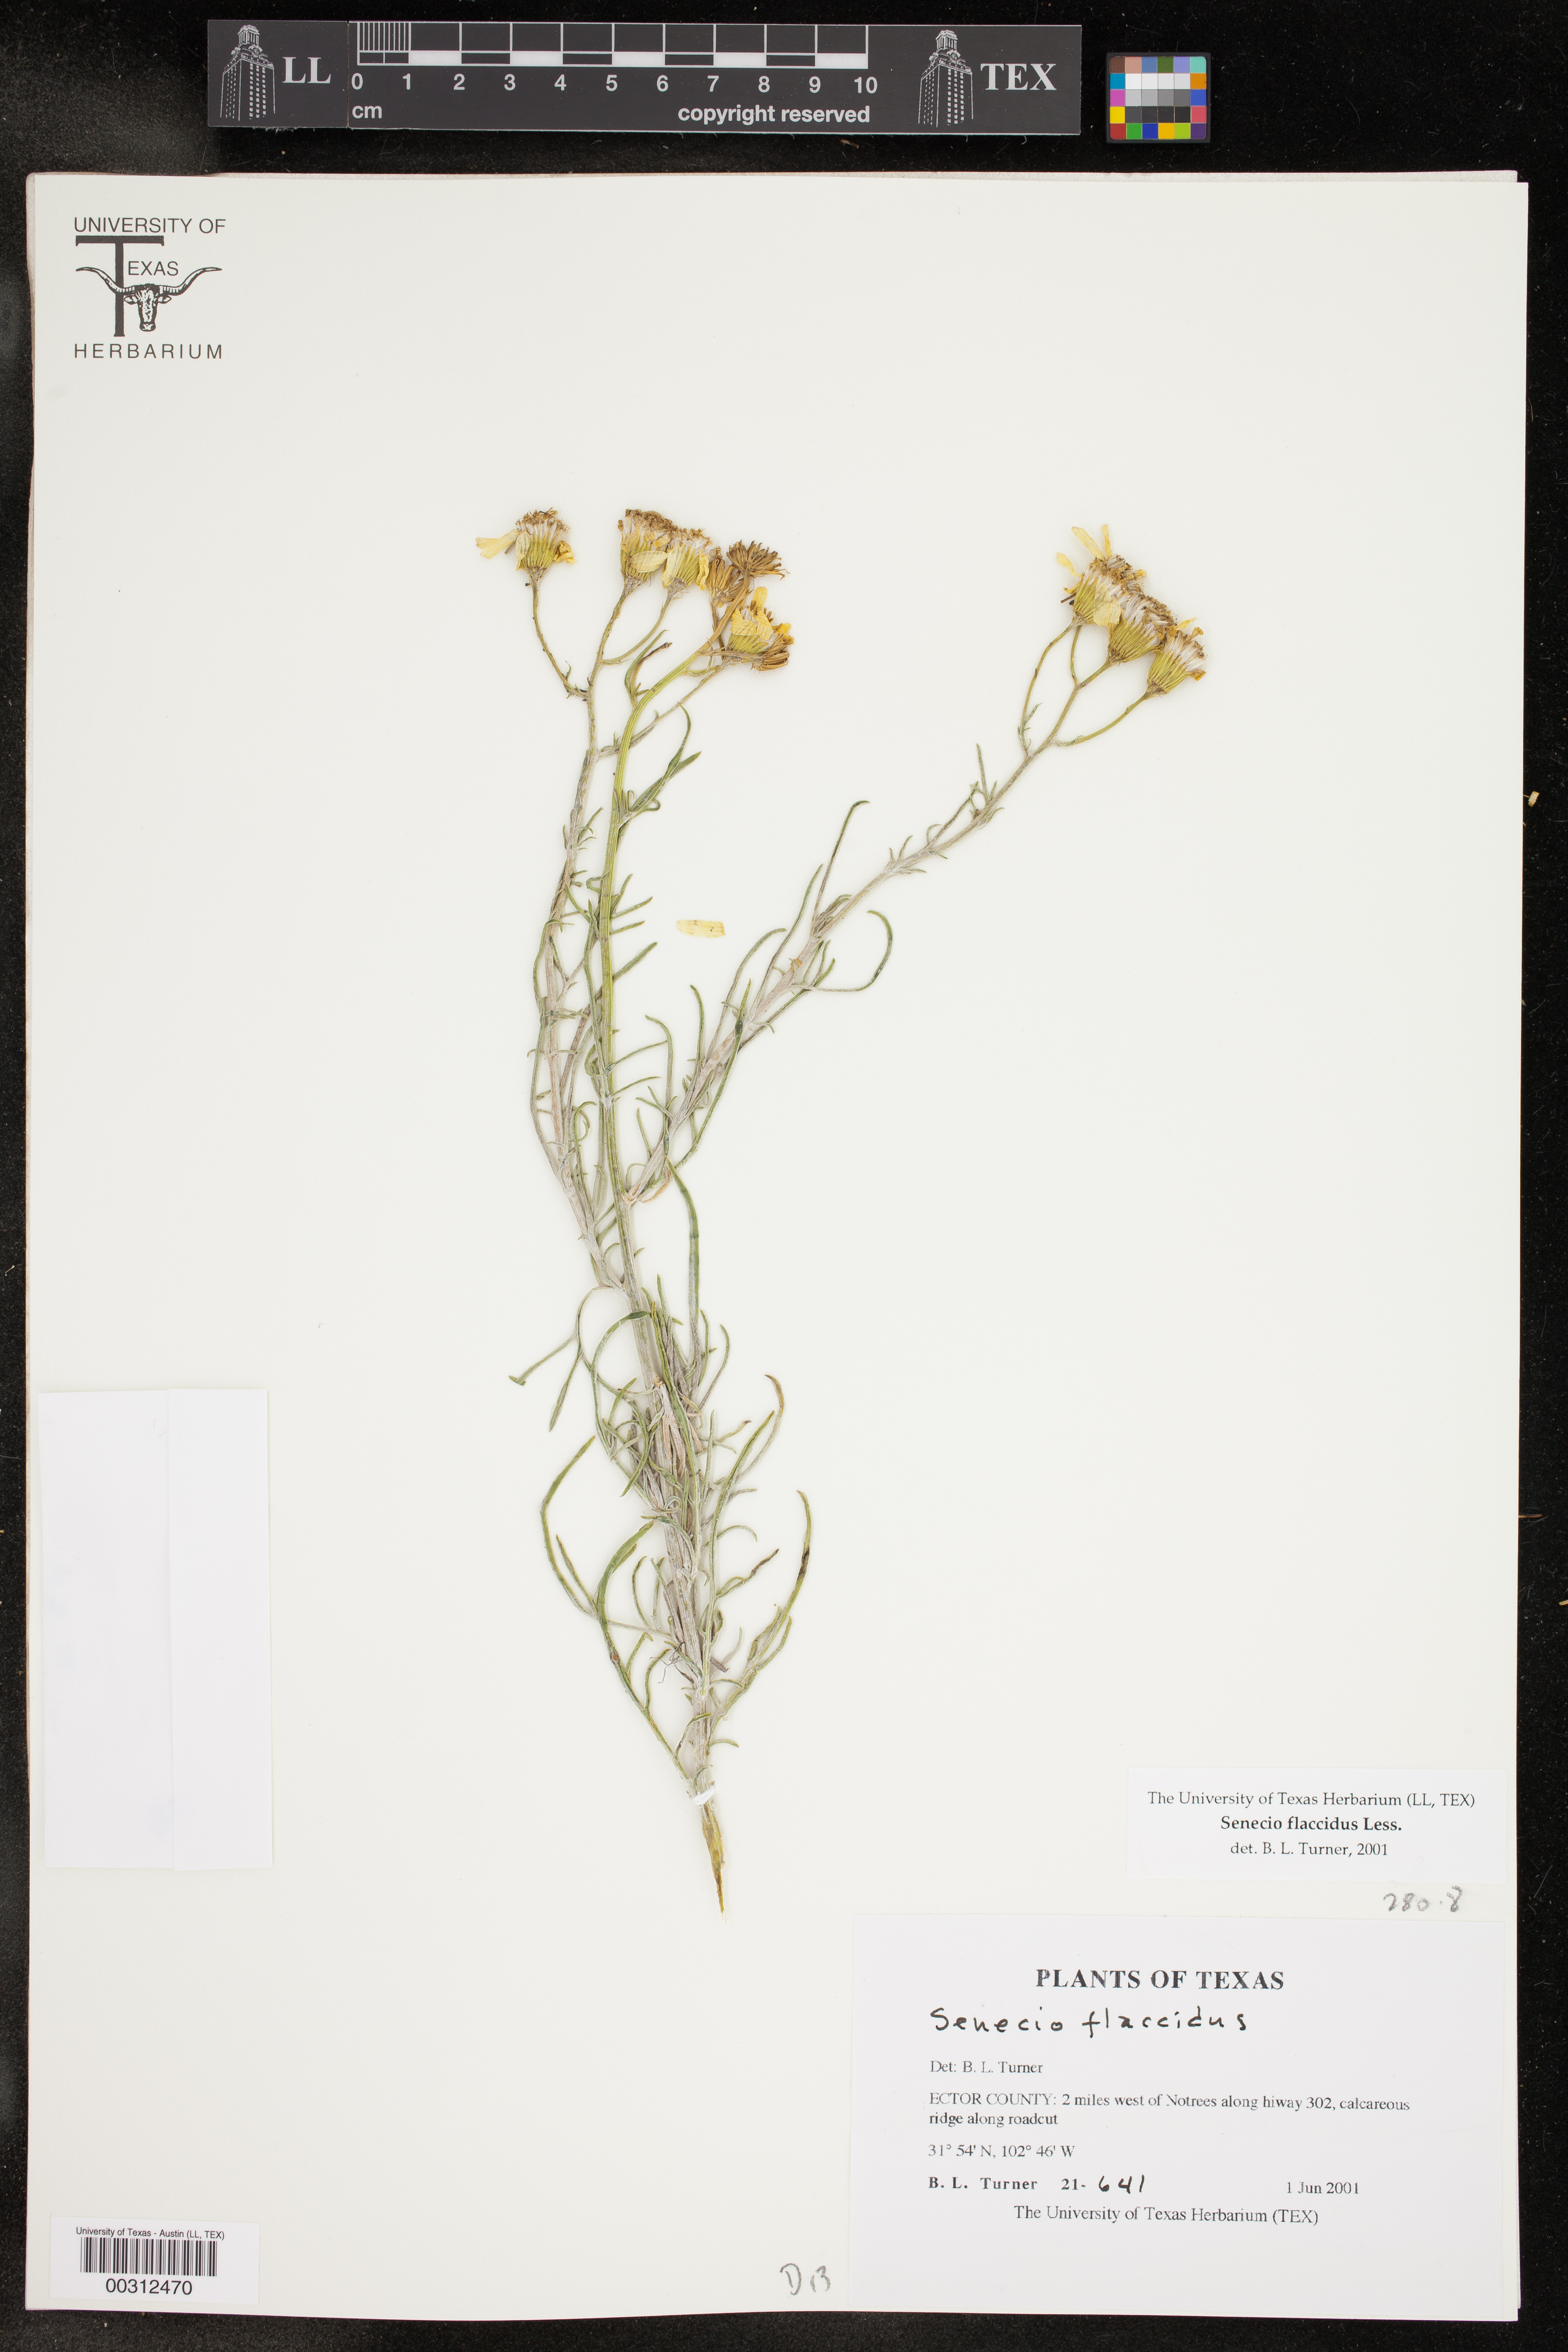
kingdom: Plantae
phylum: Tracheophyta
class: Magnoliopsida
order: Asterales
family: Asteraceae
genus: Senecio
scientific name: Senecio flaccidus
